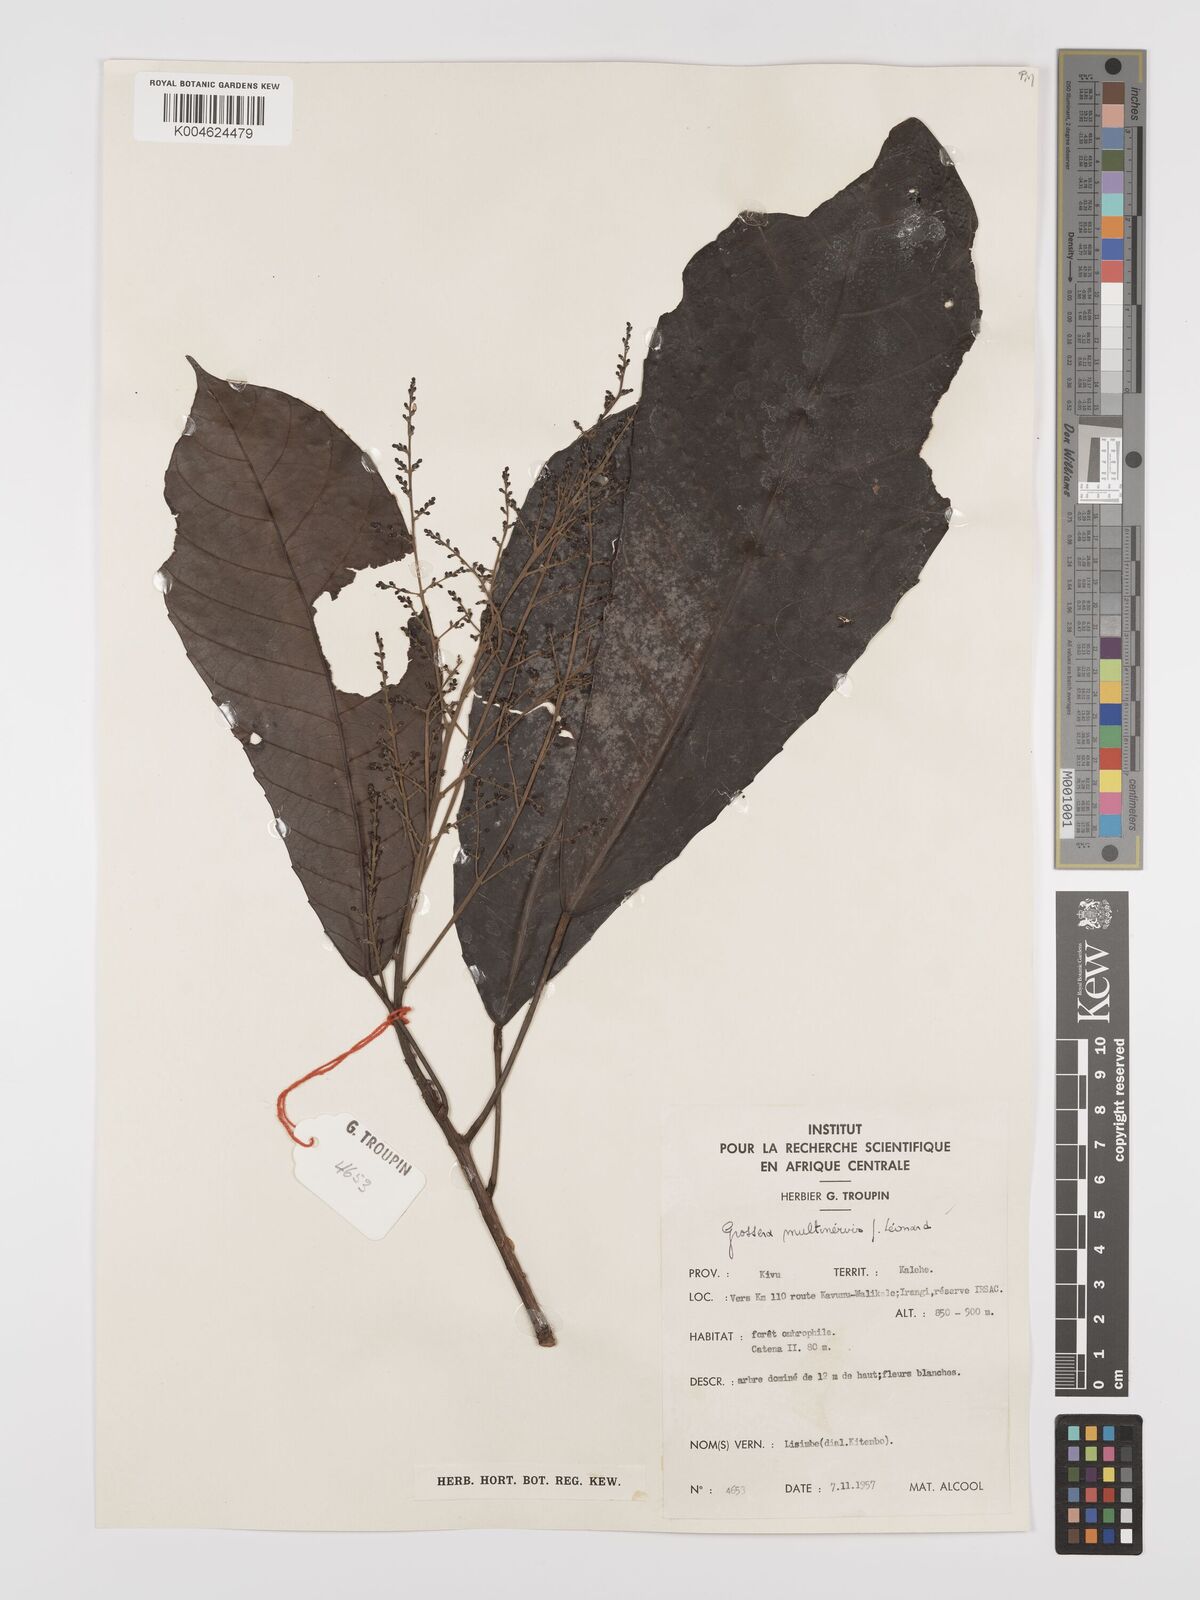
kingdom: Plantae
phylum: Tracheophyta
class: Magnoliopsida
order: Malpighiales
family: Euphorbiaceae
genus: Grossera
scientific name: Grossera multinervis
